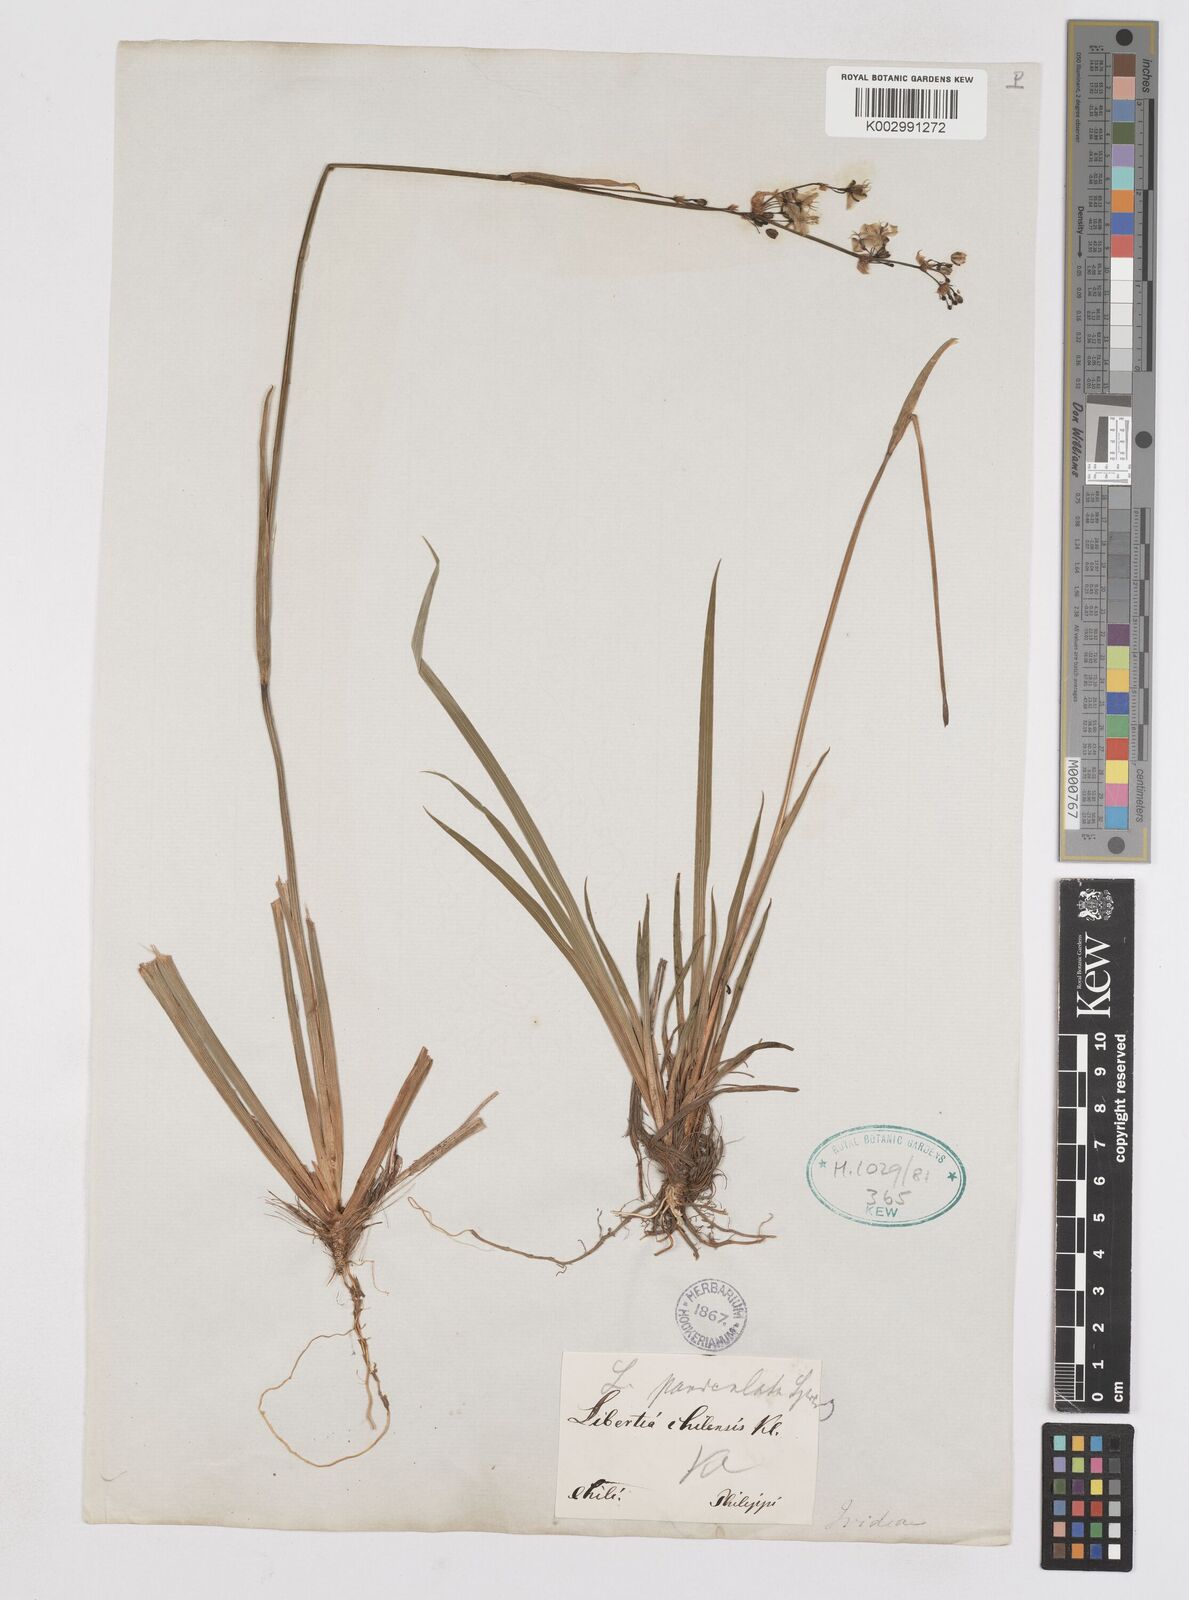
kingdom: Plantae
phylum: Tracheophyta
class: Liliopsida
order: Asparagales
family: Iridaceae
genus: Libertia
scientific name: Libertia tricocca
